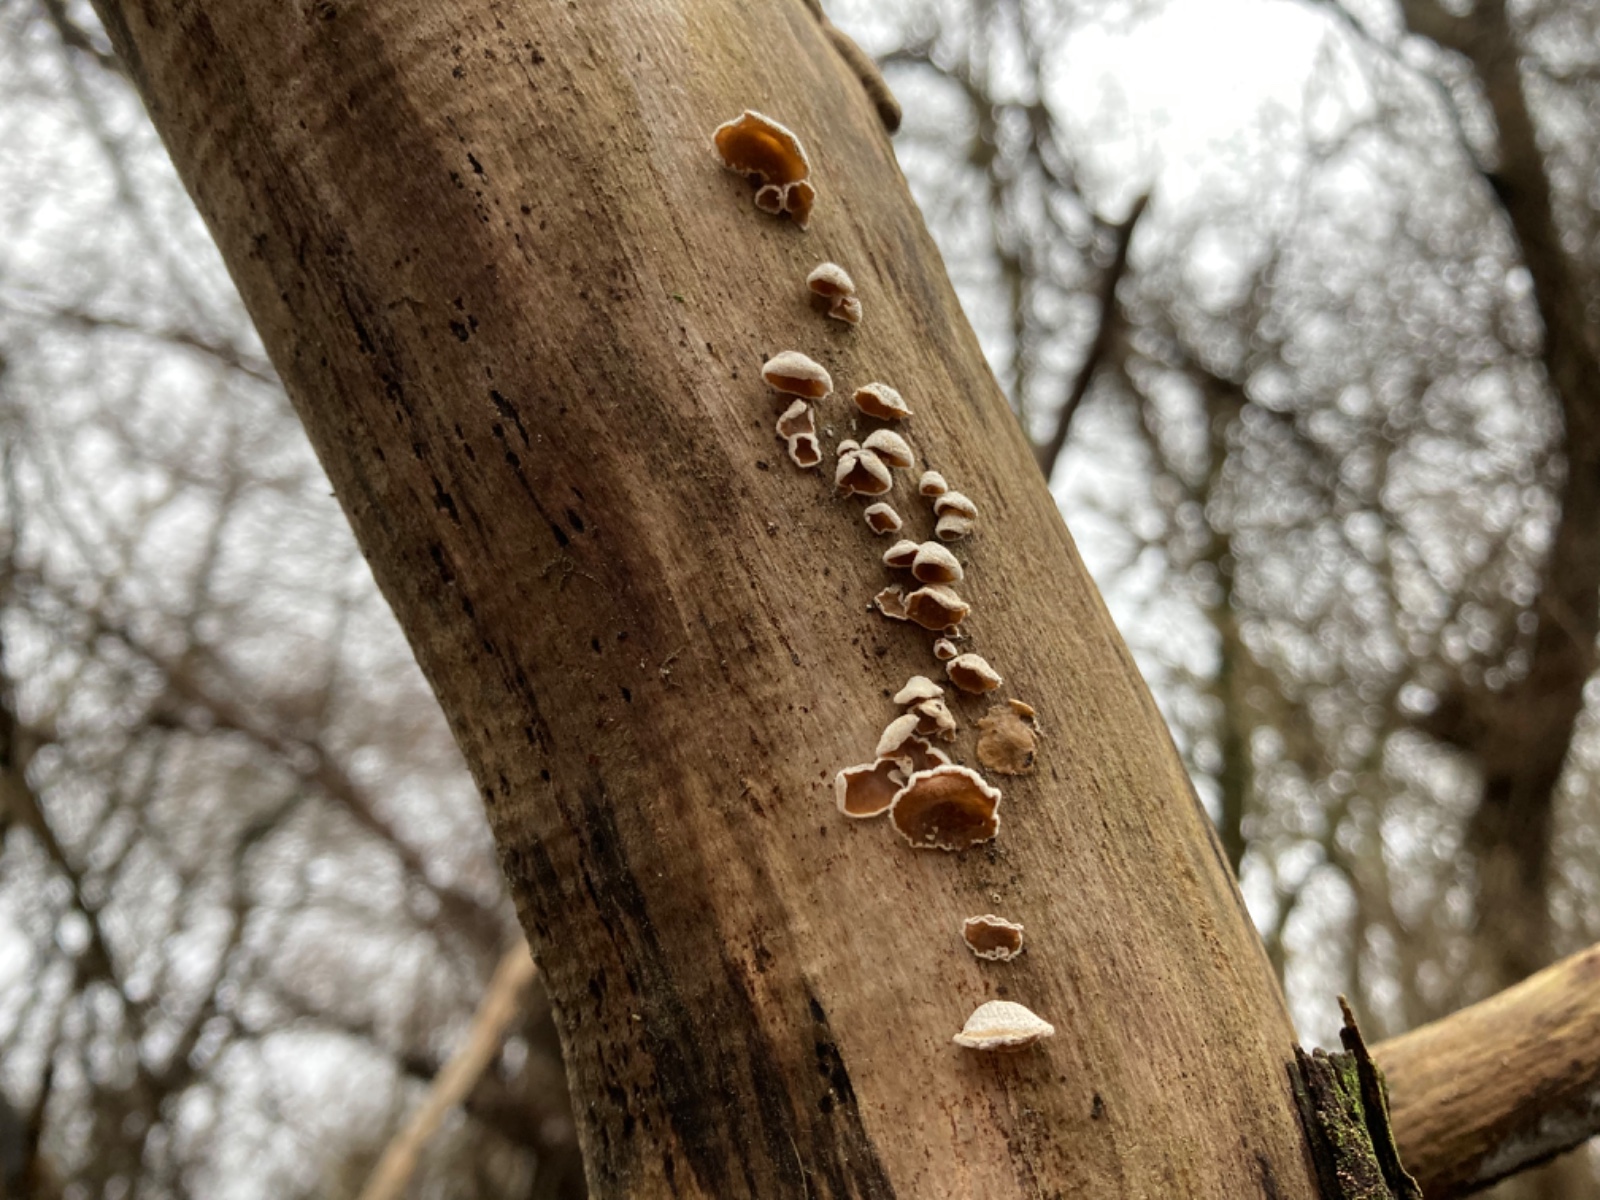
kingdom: Fungi
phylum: Basidiomycota
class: Agaricomycetes
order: Agaricales
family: Schizophyllaceae
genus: Schizophyllum
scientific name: Schizophyllum amplum
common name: poppel-hængeøre
